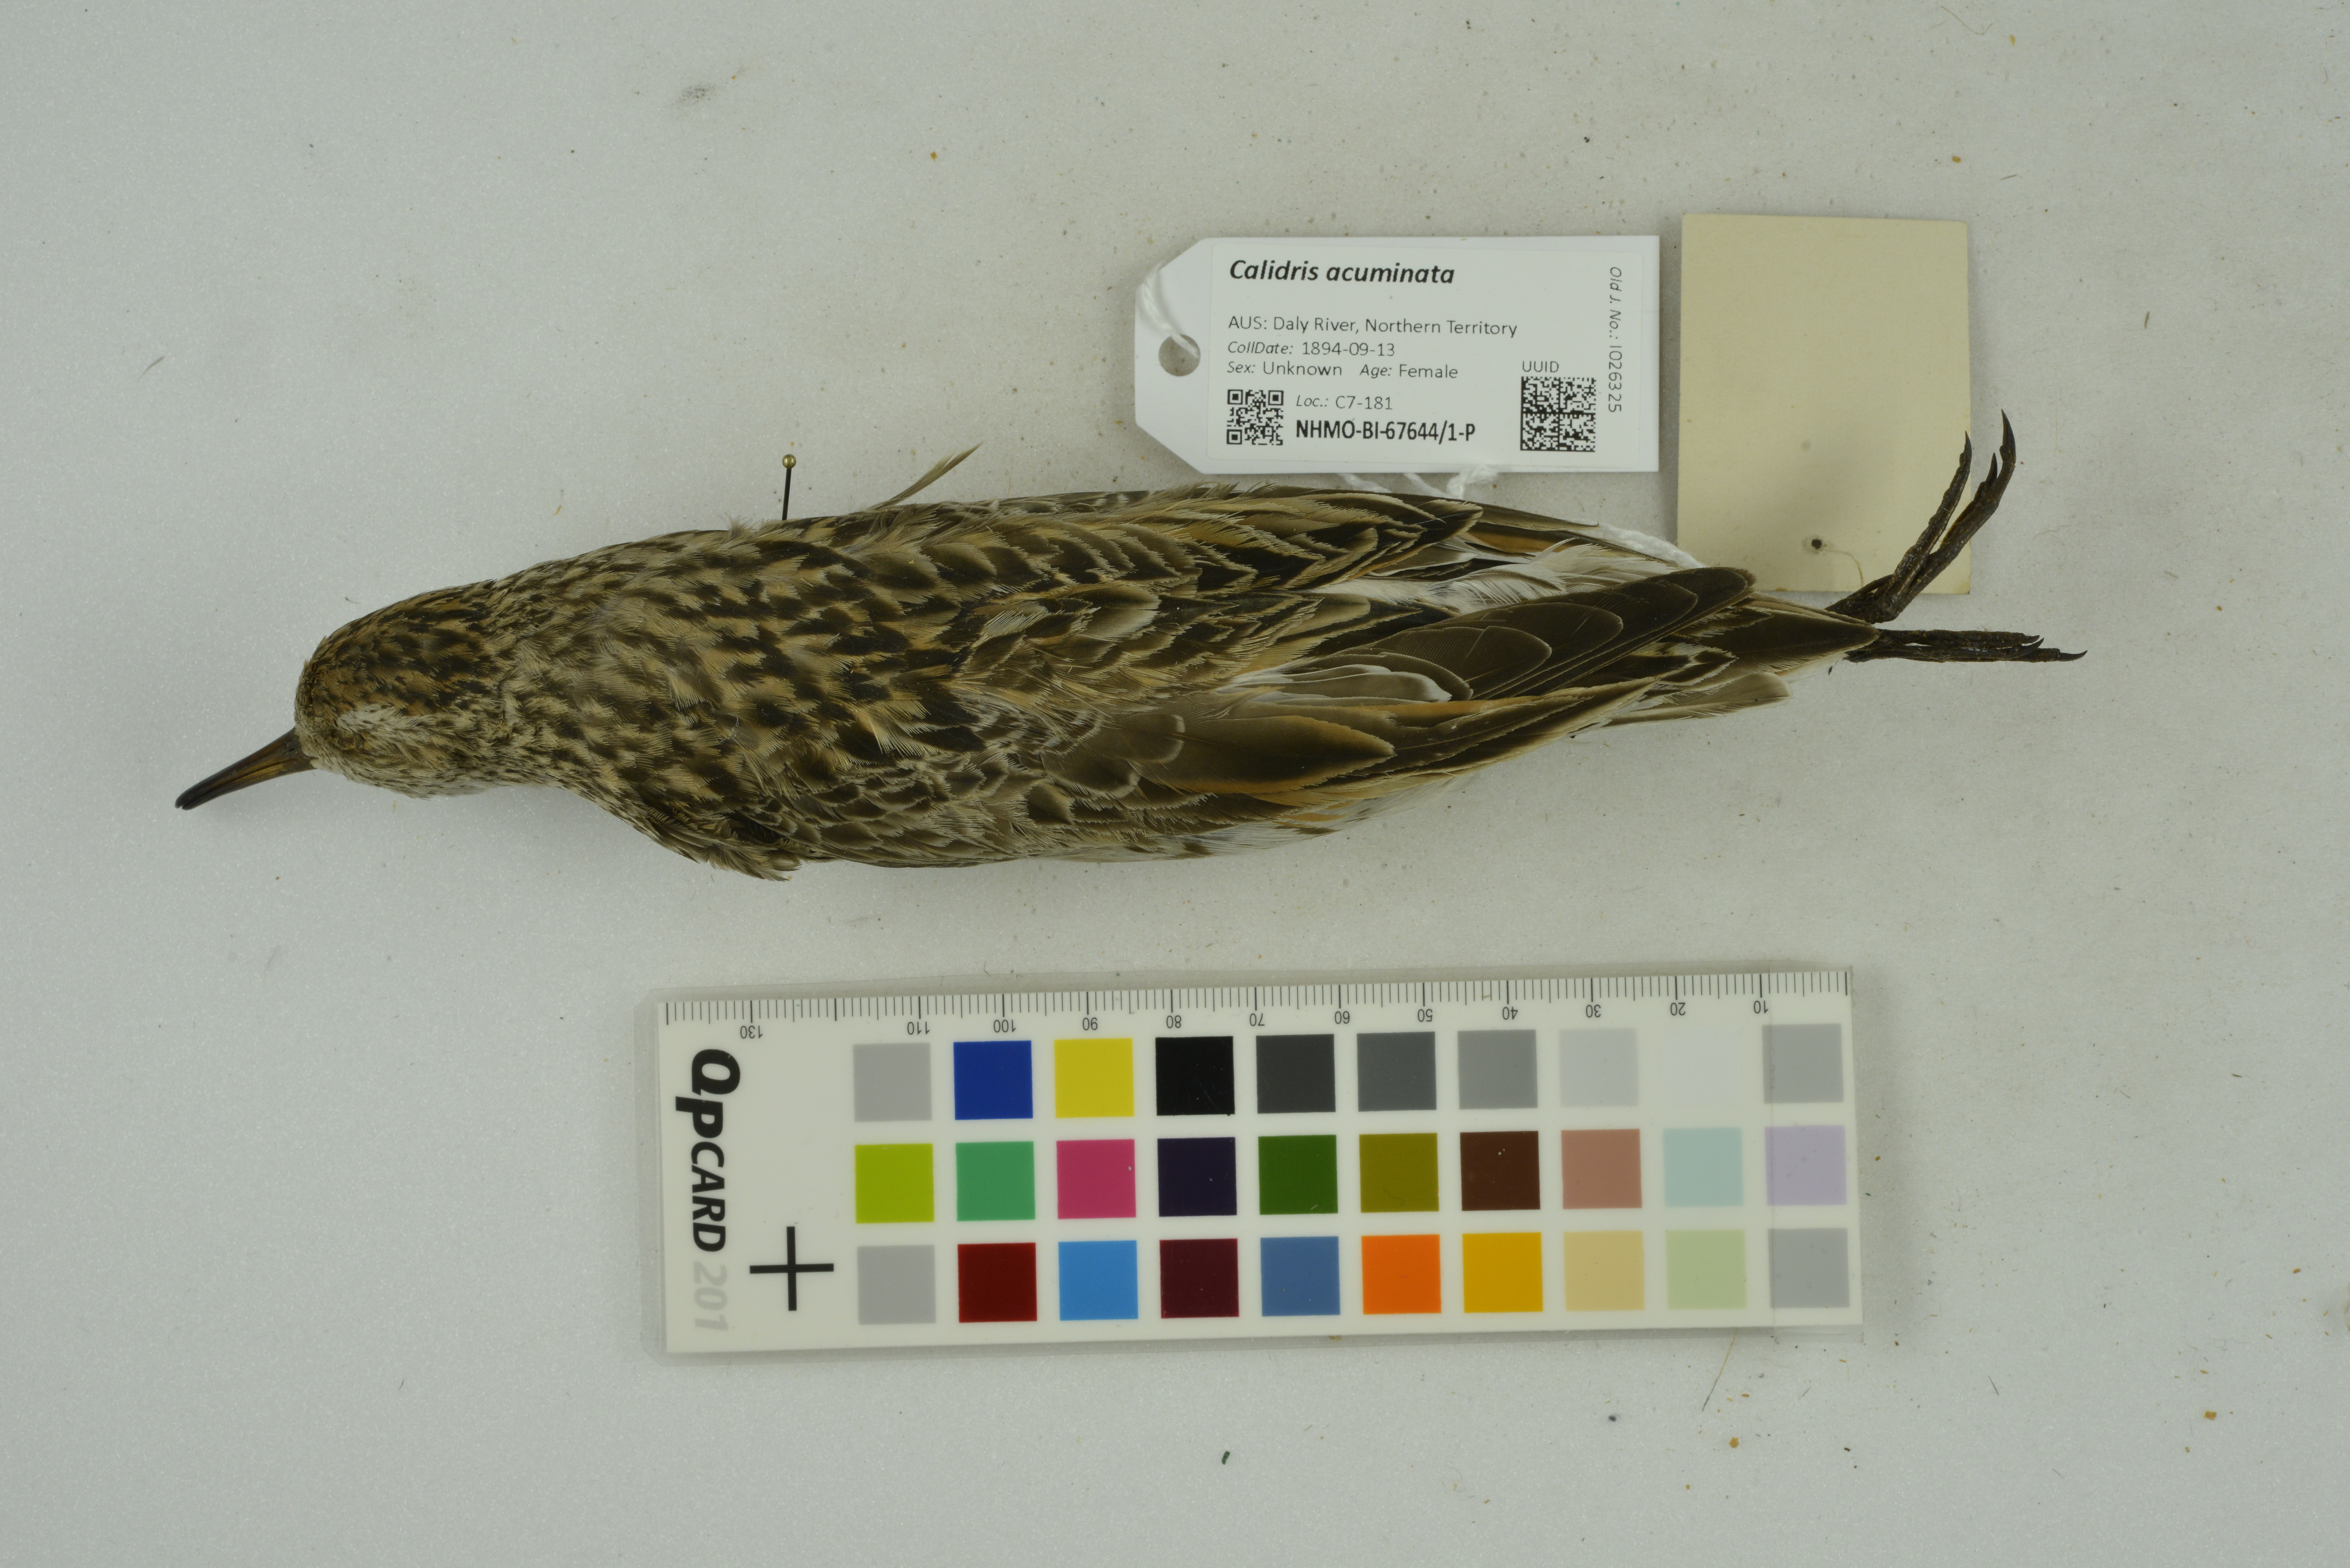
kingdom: Animalia
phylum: Chordata
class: Aves
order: Charadriiformes
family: Scolopacidae
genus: Calidris
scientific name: Calidris acuminata
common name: Sharp-tailed sandpiper
